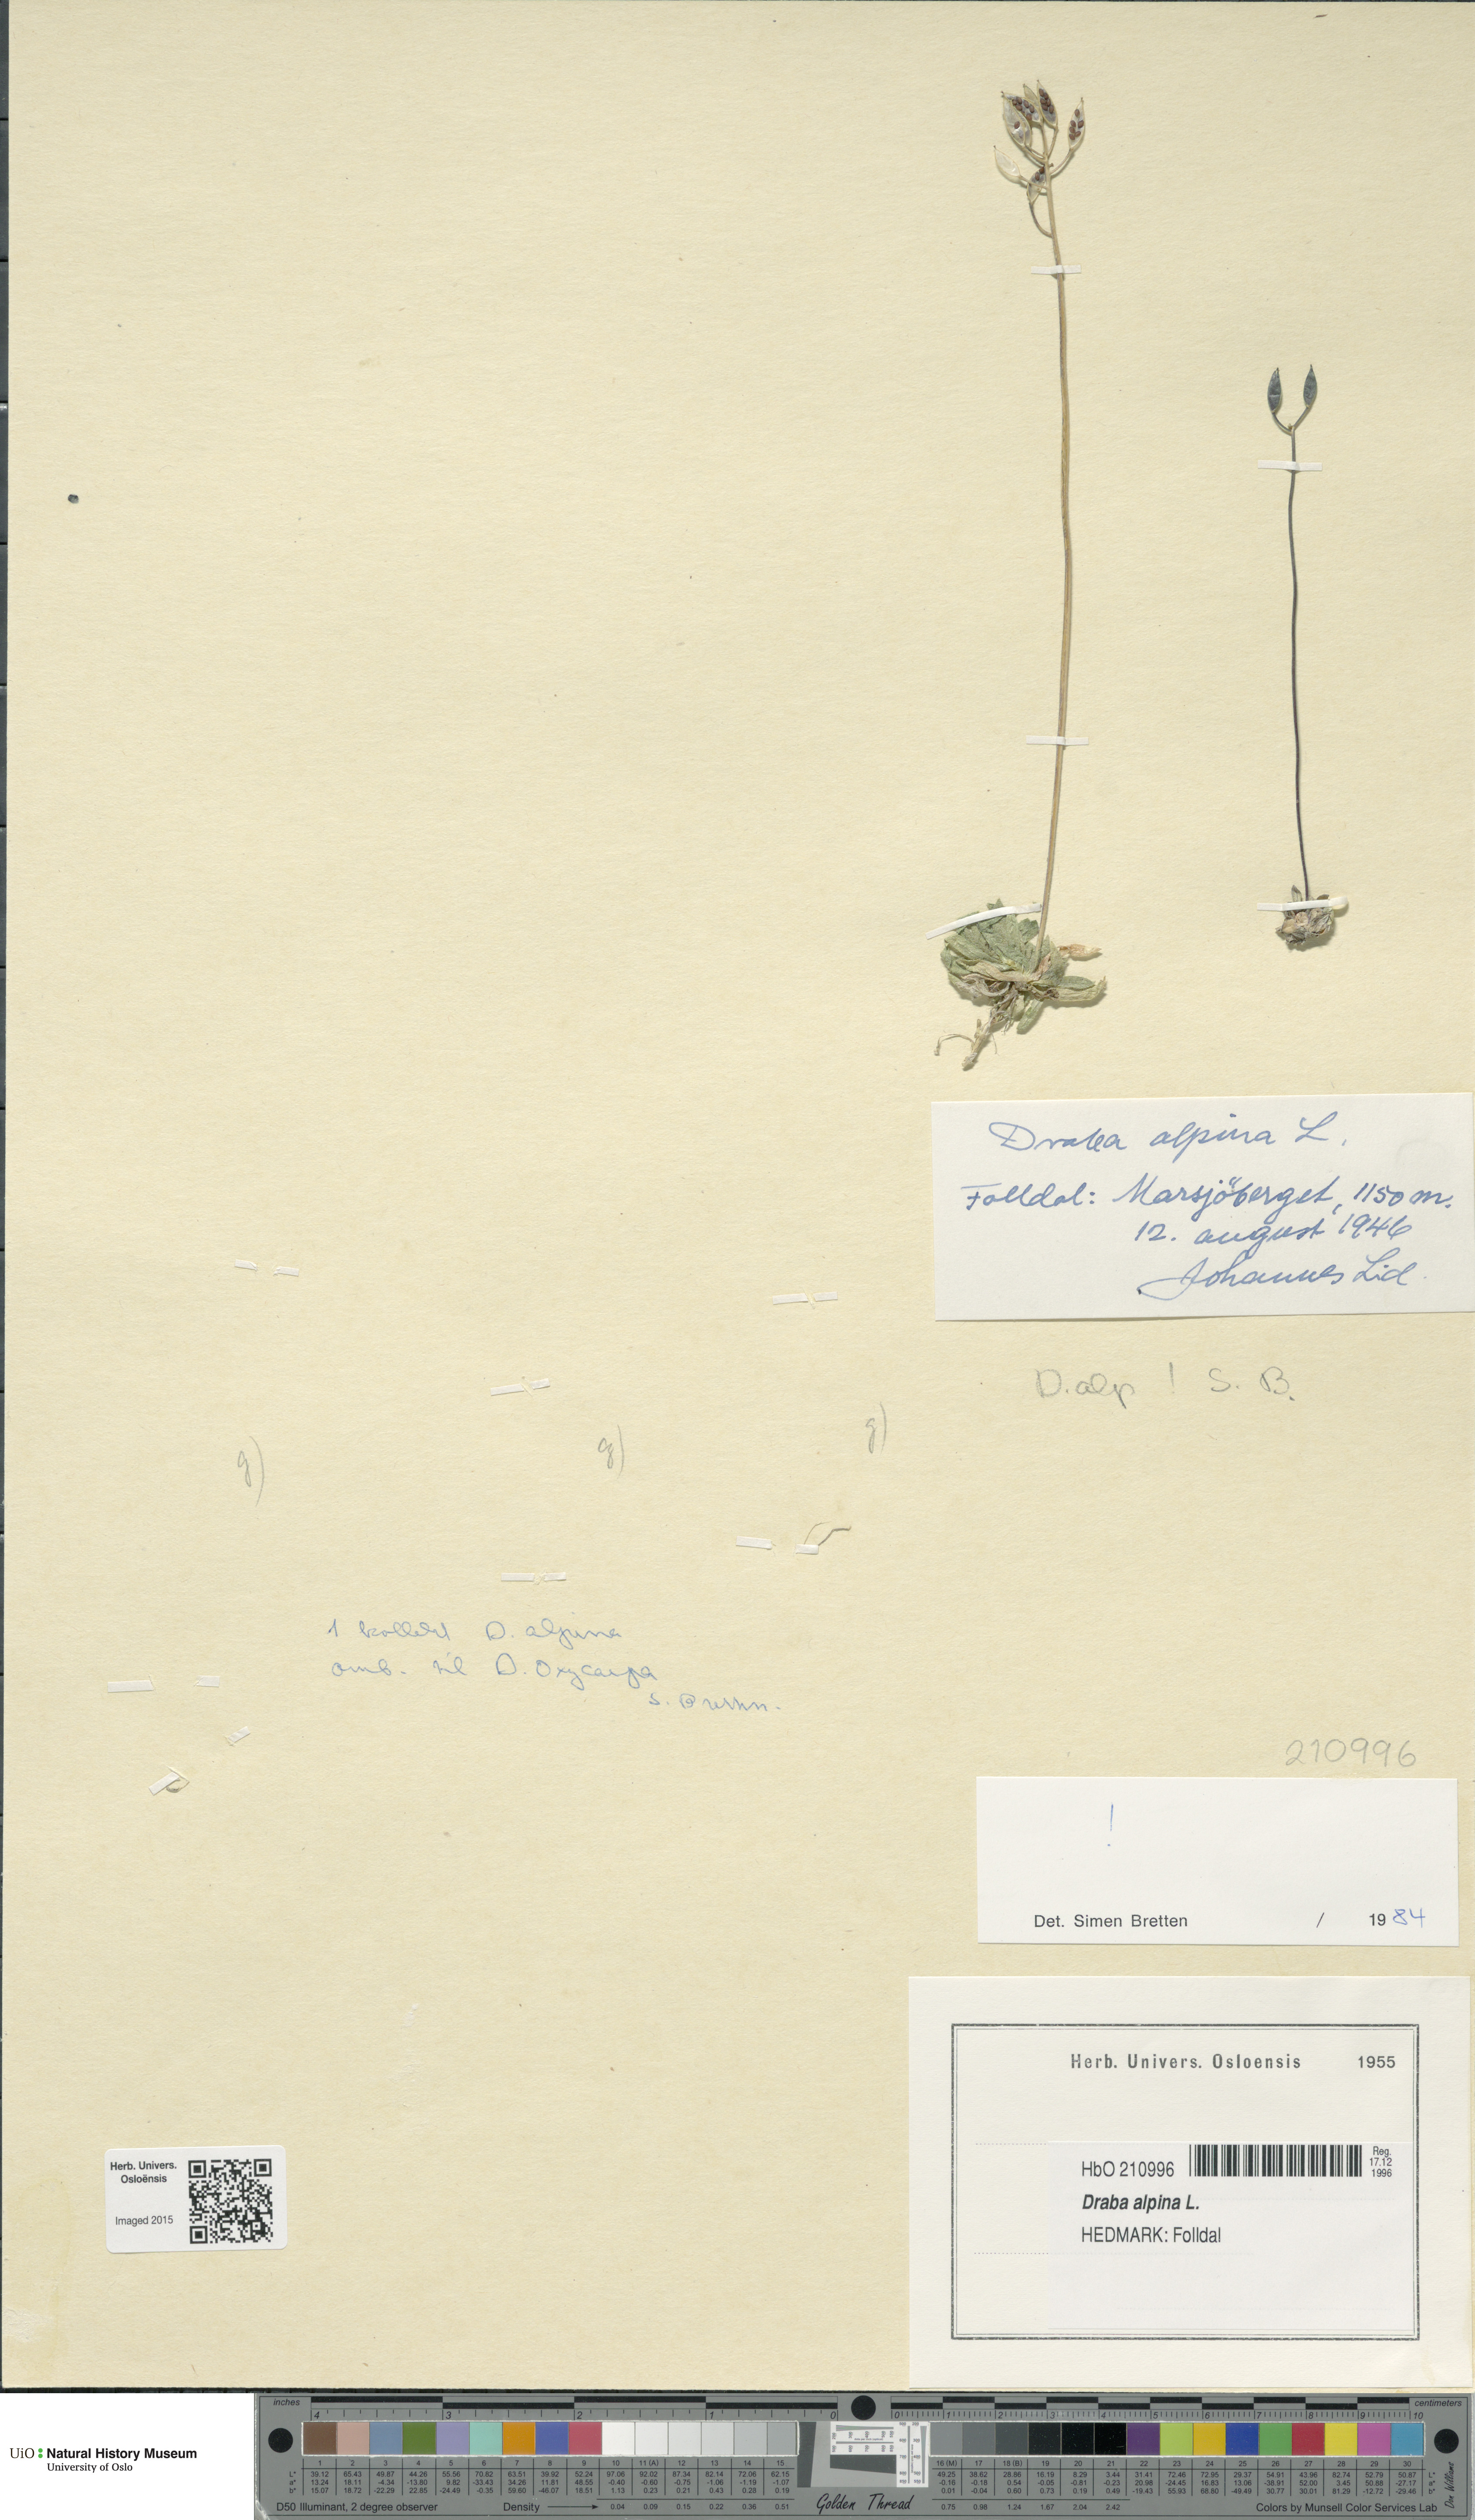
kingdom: Plantae
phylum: Tracheophyta
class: Magnoliopsida
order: Brassicales
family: Brassicaceae
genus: Draba
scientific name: Draba alpina
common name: Alpine draba
